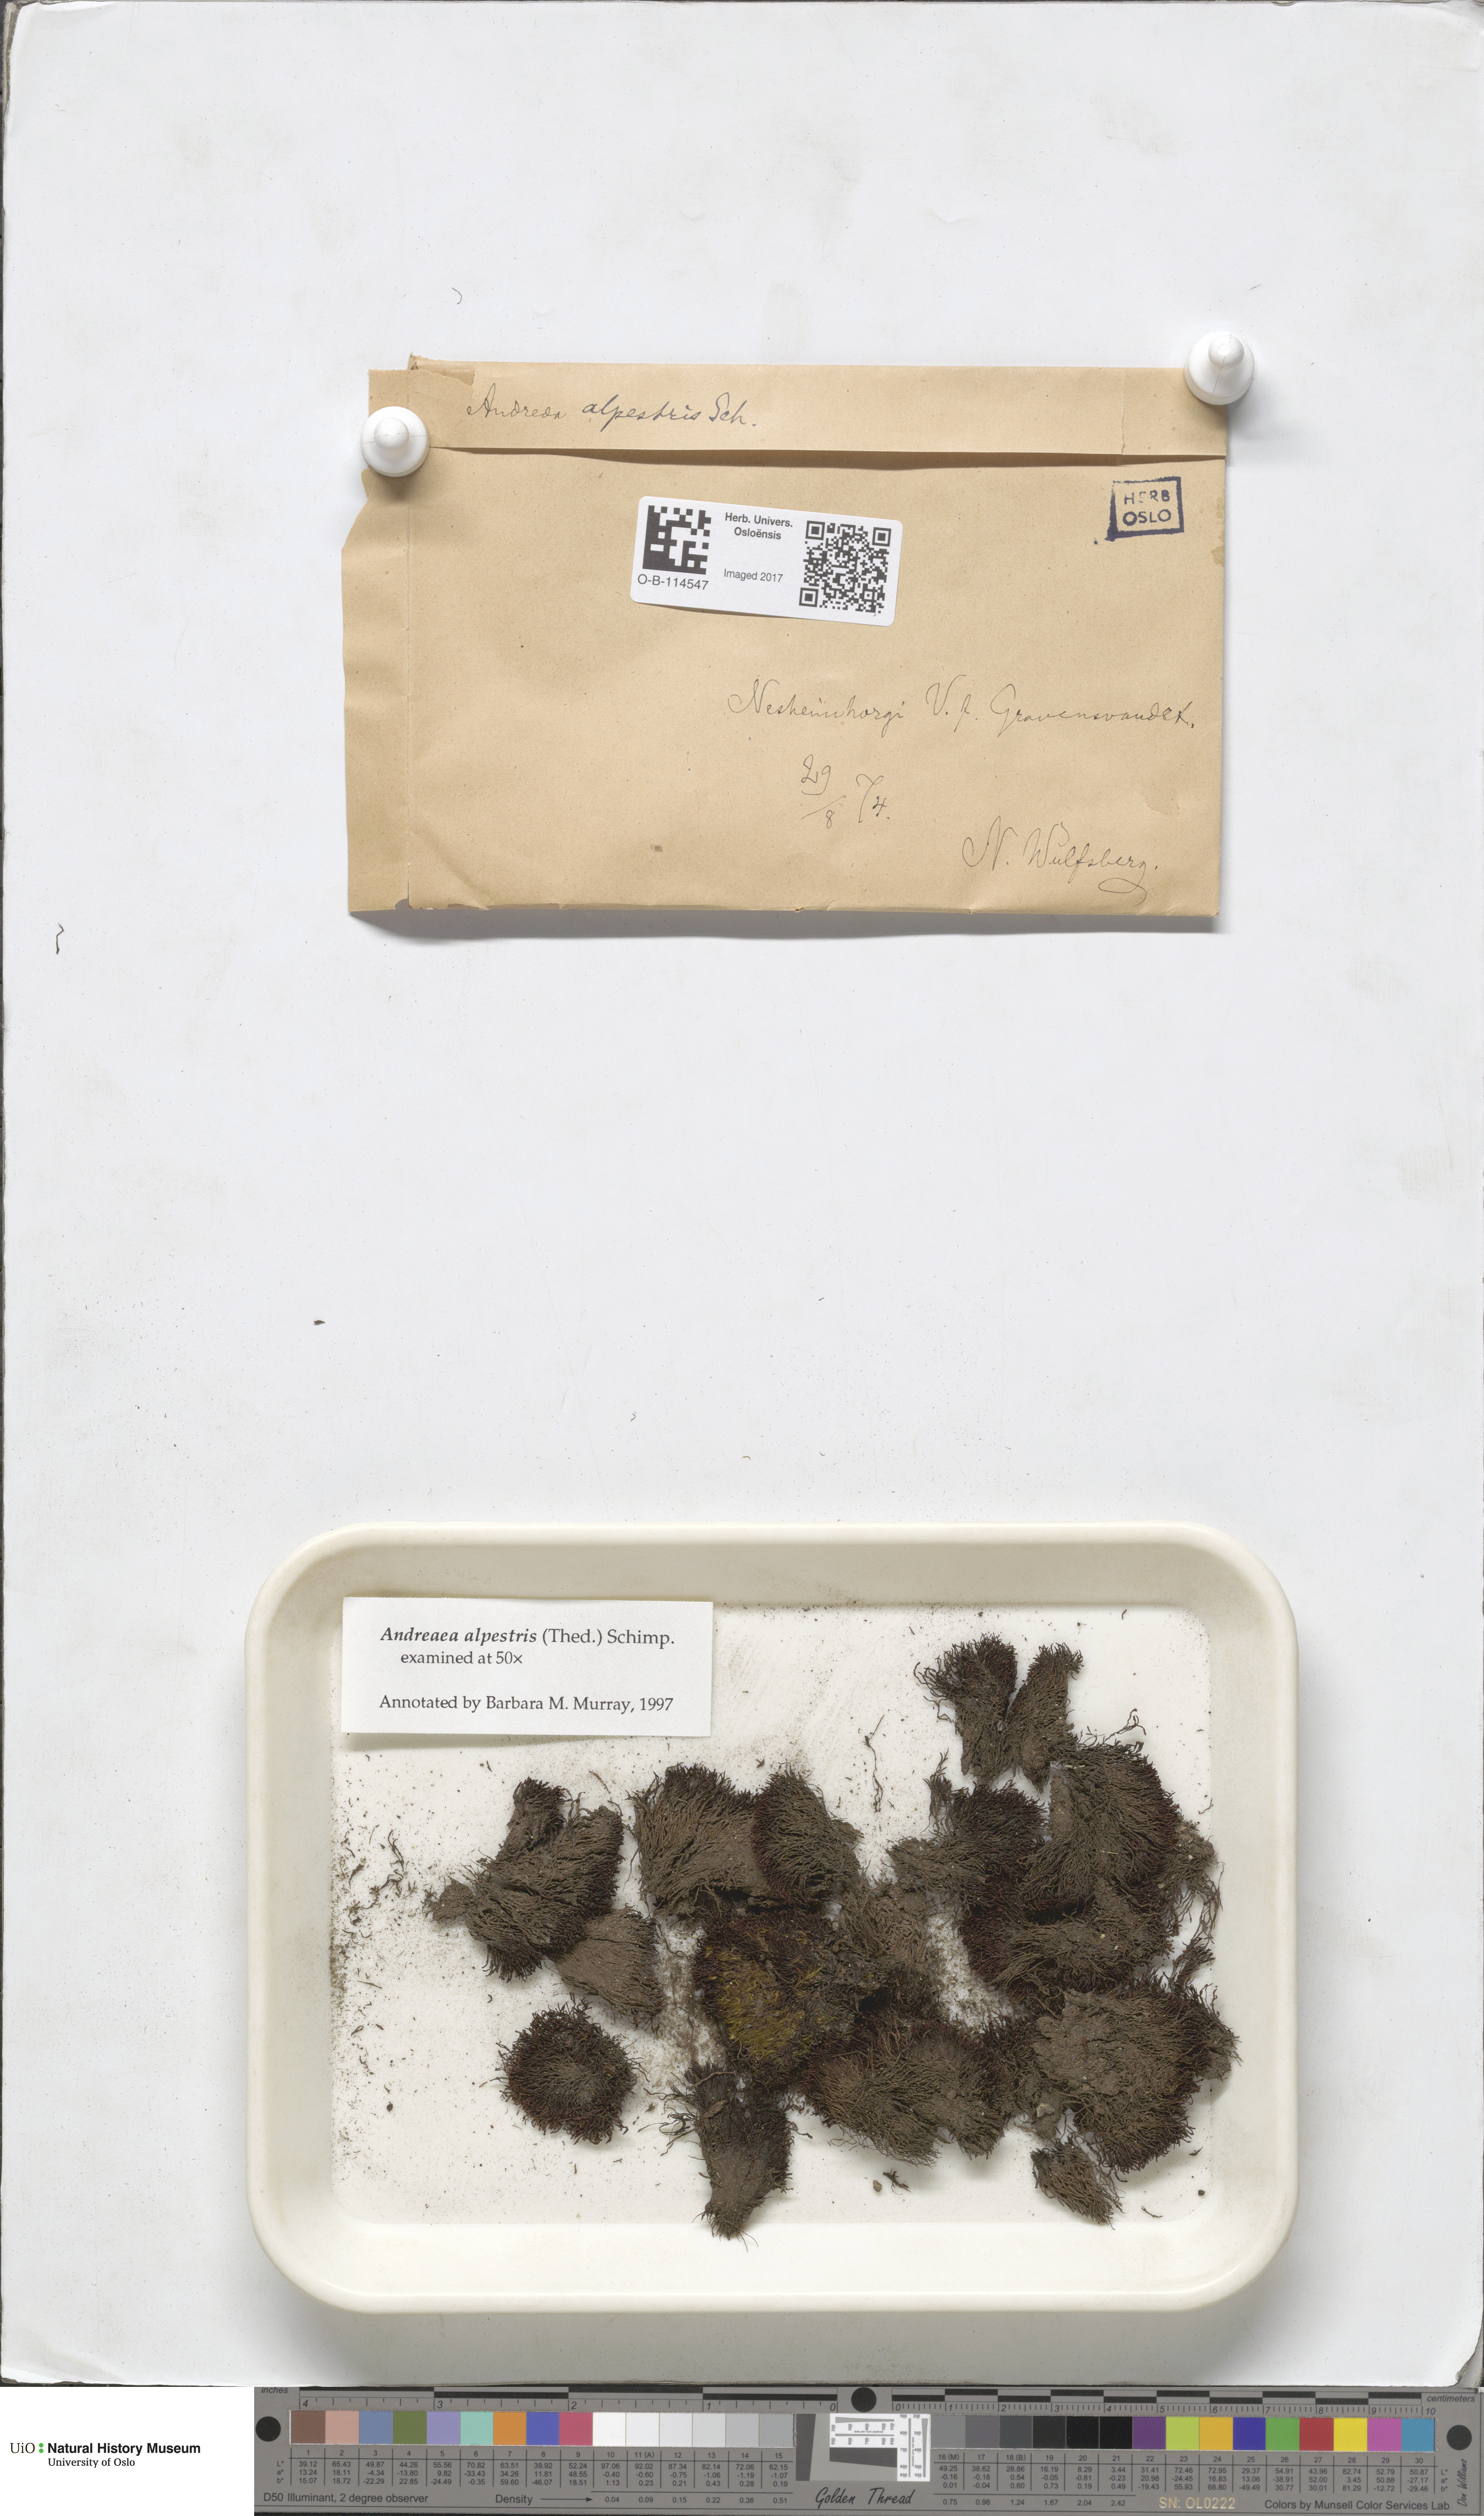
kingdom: Plantae
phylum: Bryophyta
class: Andreaeopsida
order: Andreaeales
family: Andreaeaceae
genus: Andreaea
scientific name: Andreaea alpestris
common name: Slender rock-moss
